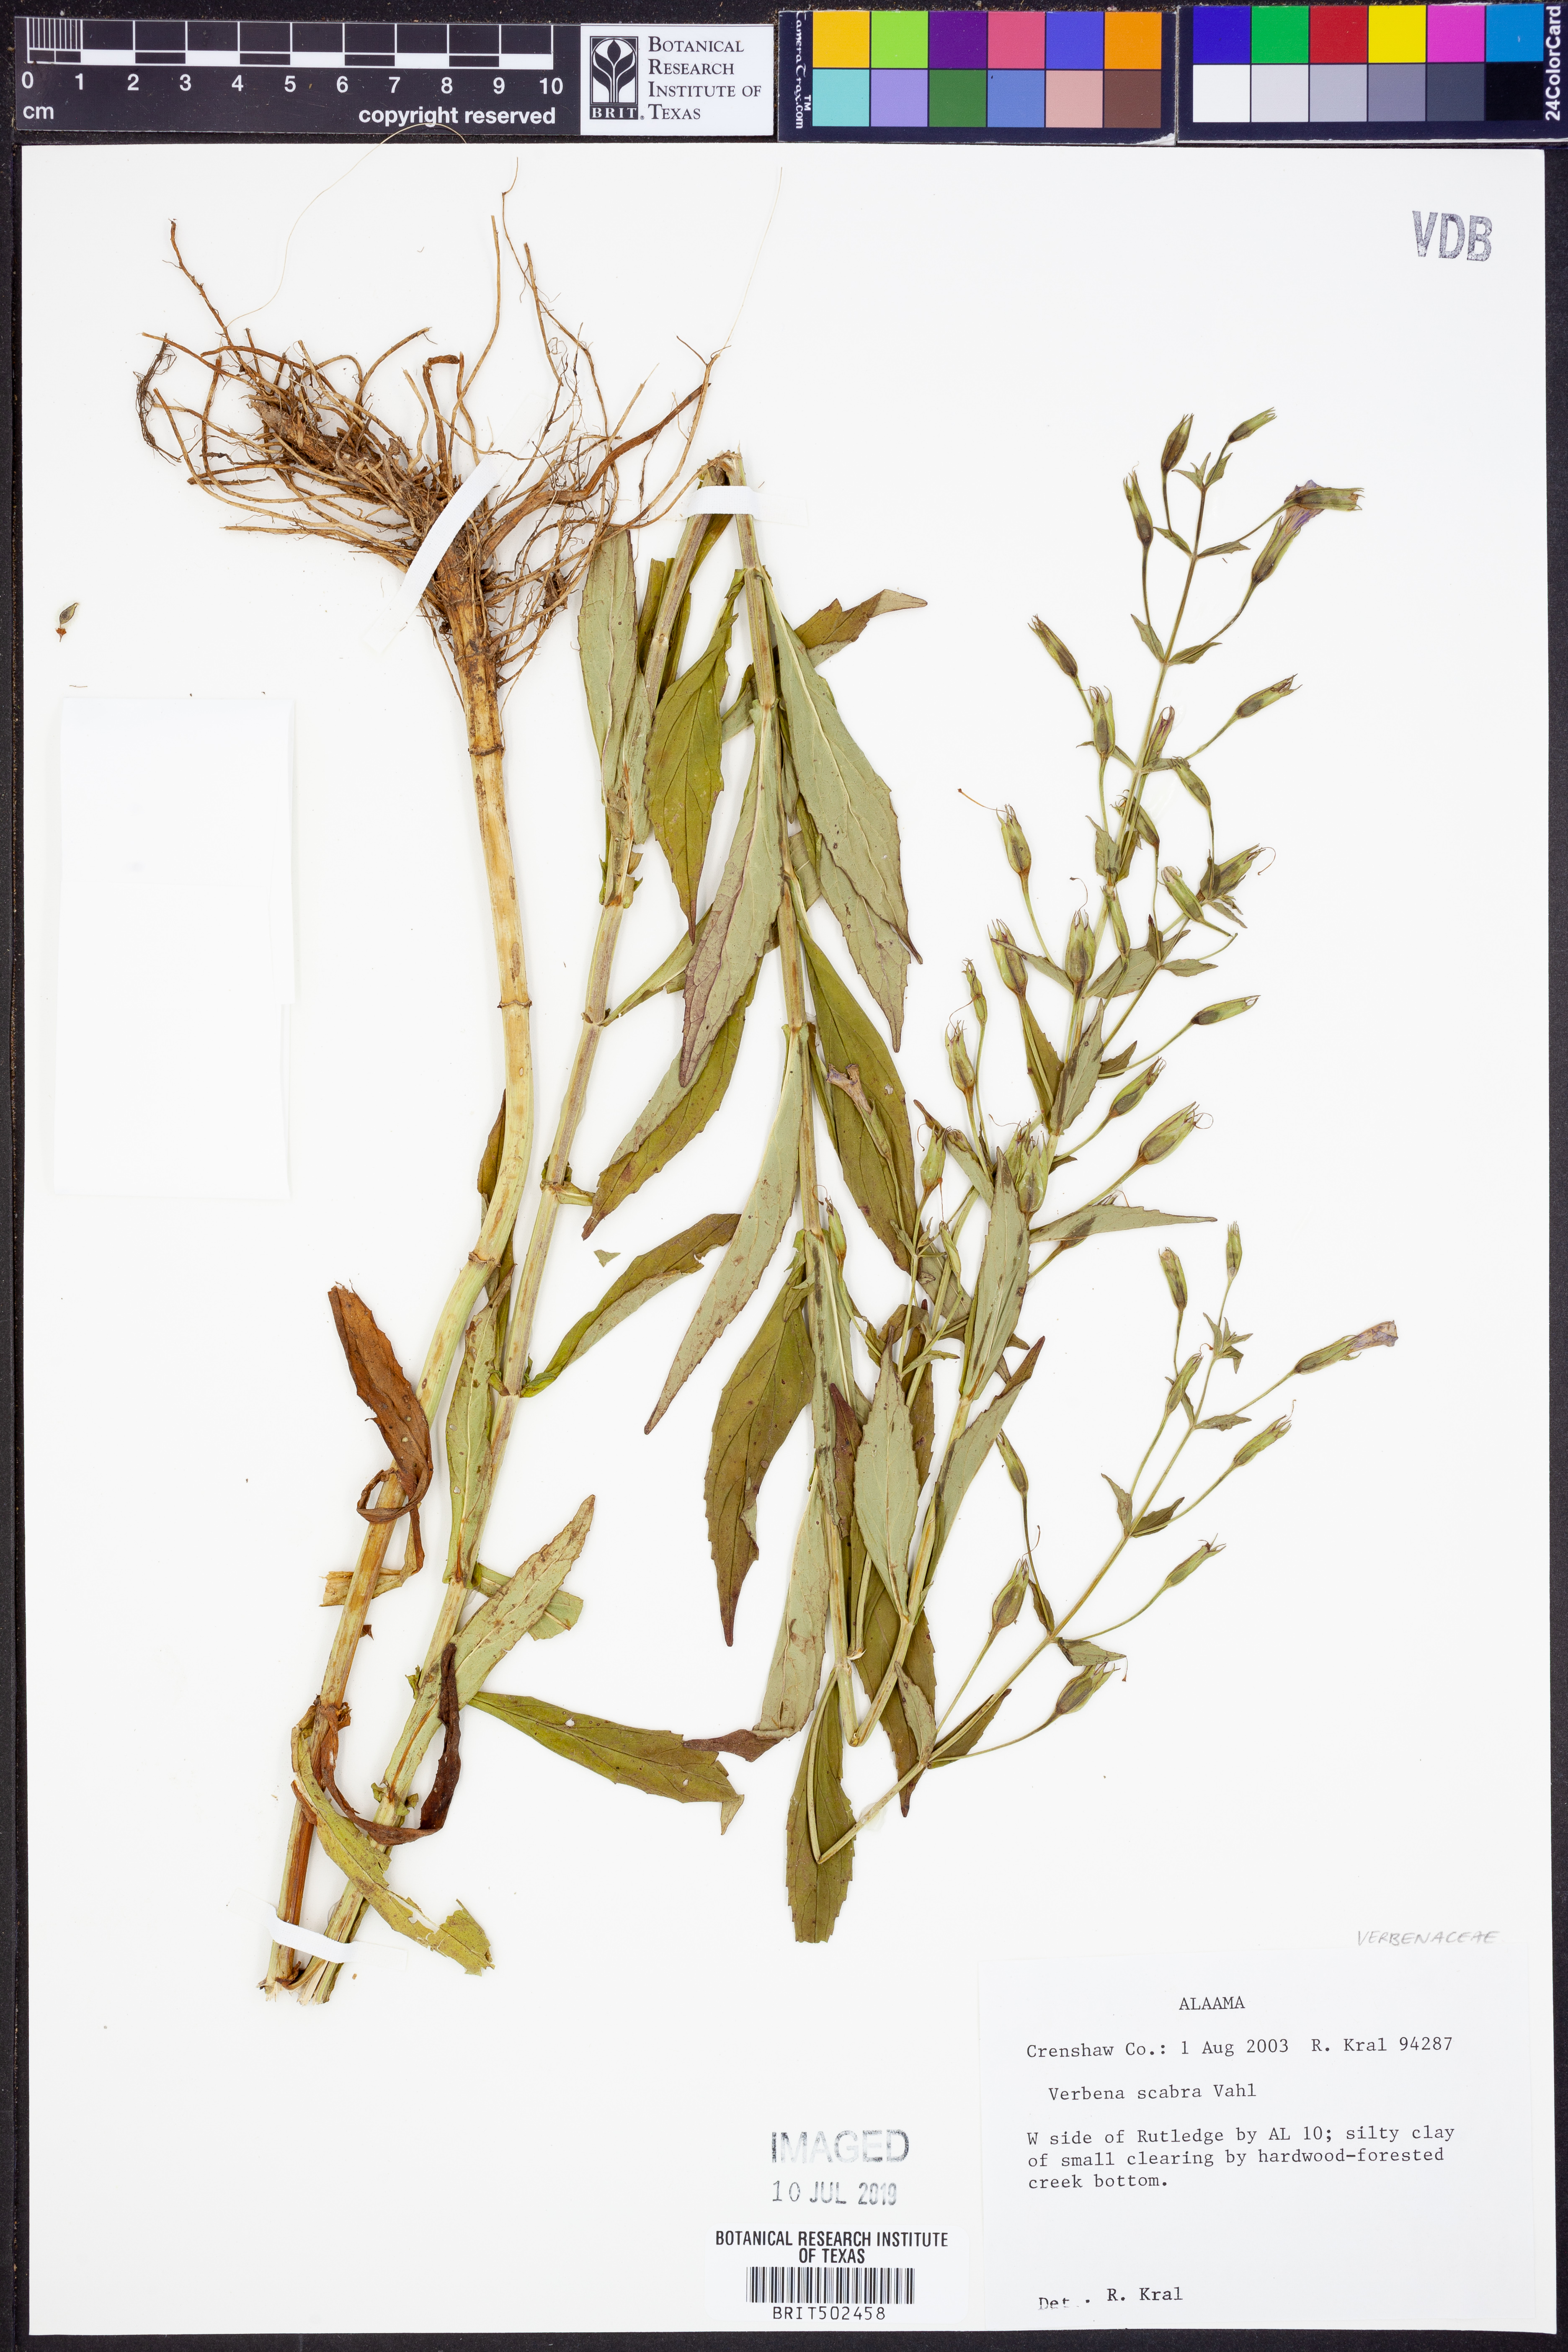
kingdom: Plantae
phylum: Tracheophyta
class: Magnoliopsida
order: Lamiales
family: Verbenaceae
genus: Verbena
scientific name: Verbena scabra
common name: Sandpaper vervain
